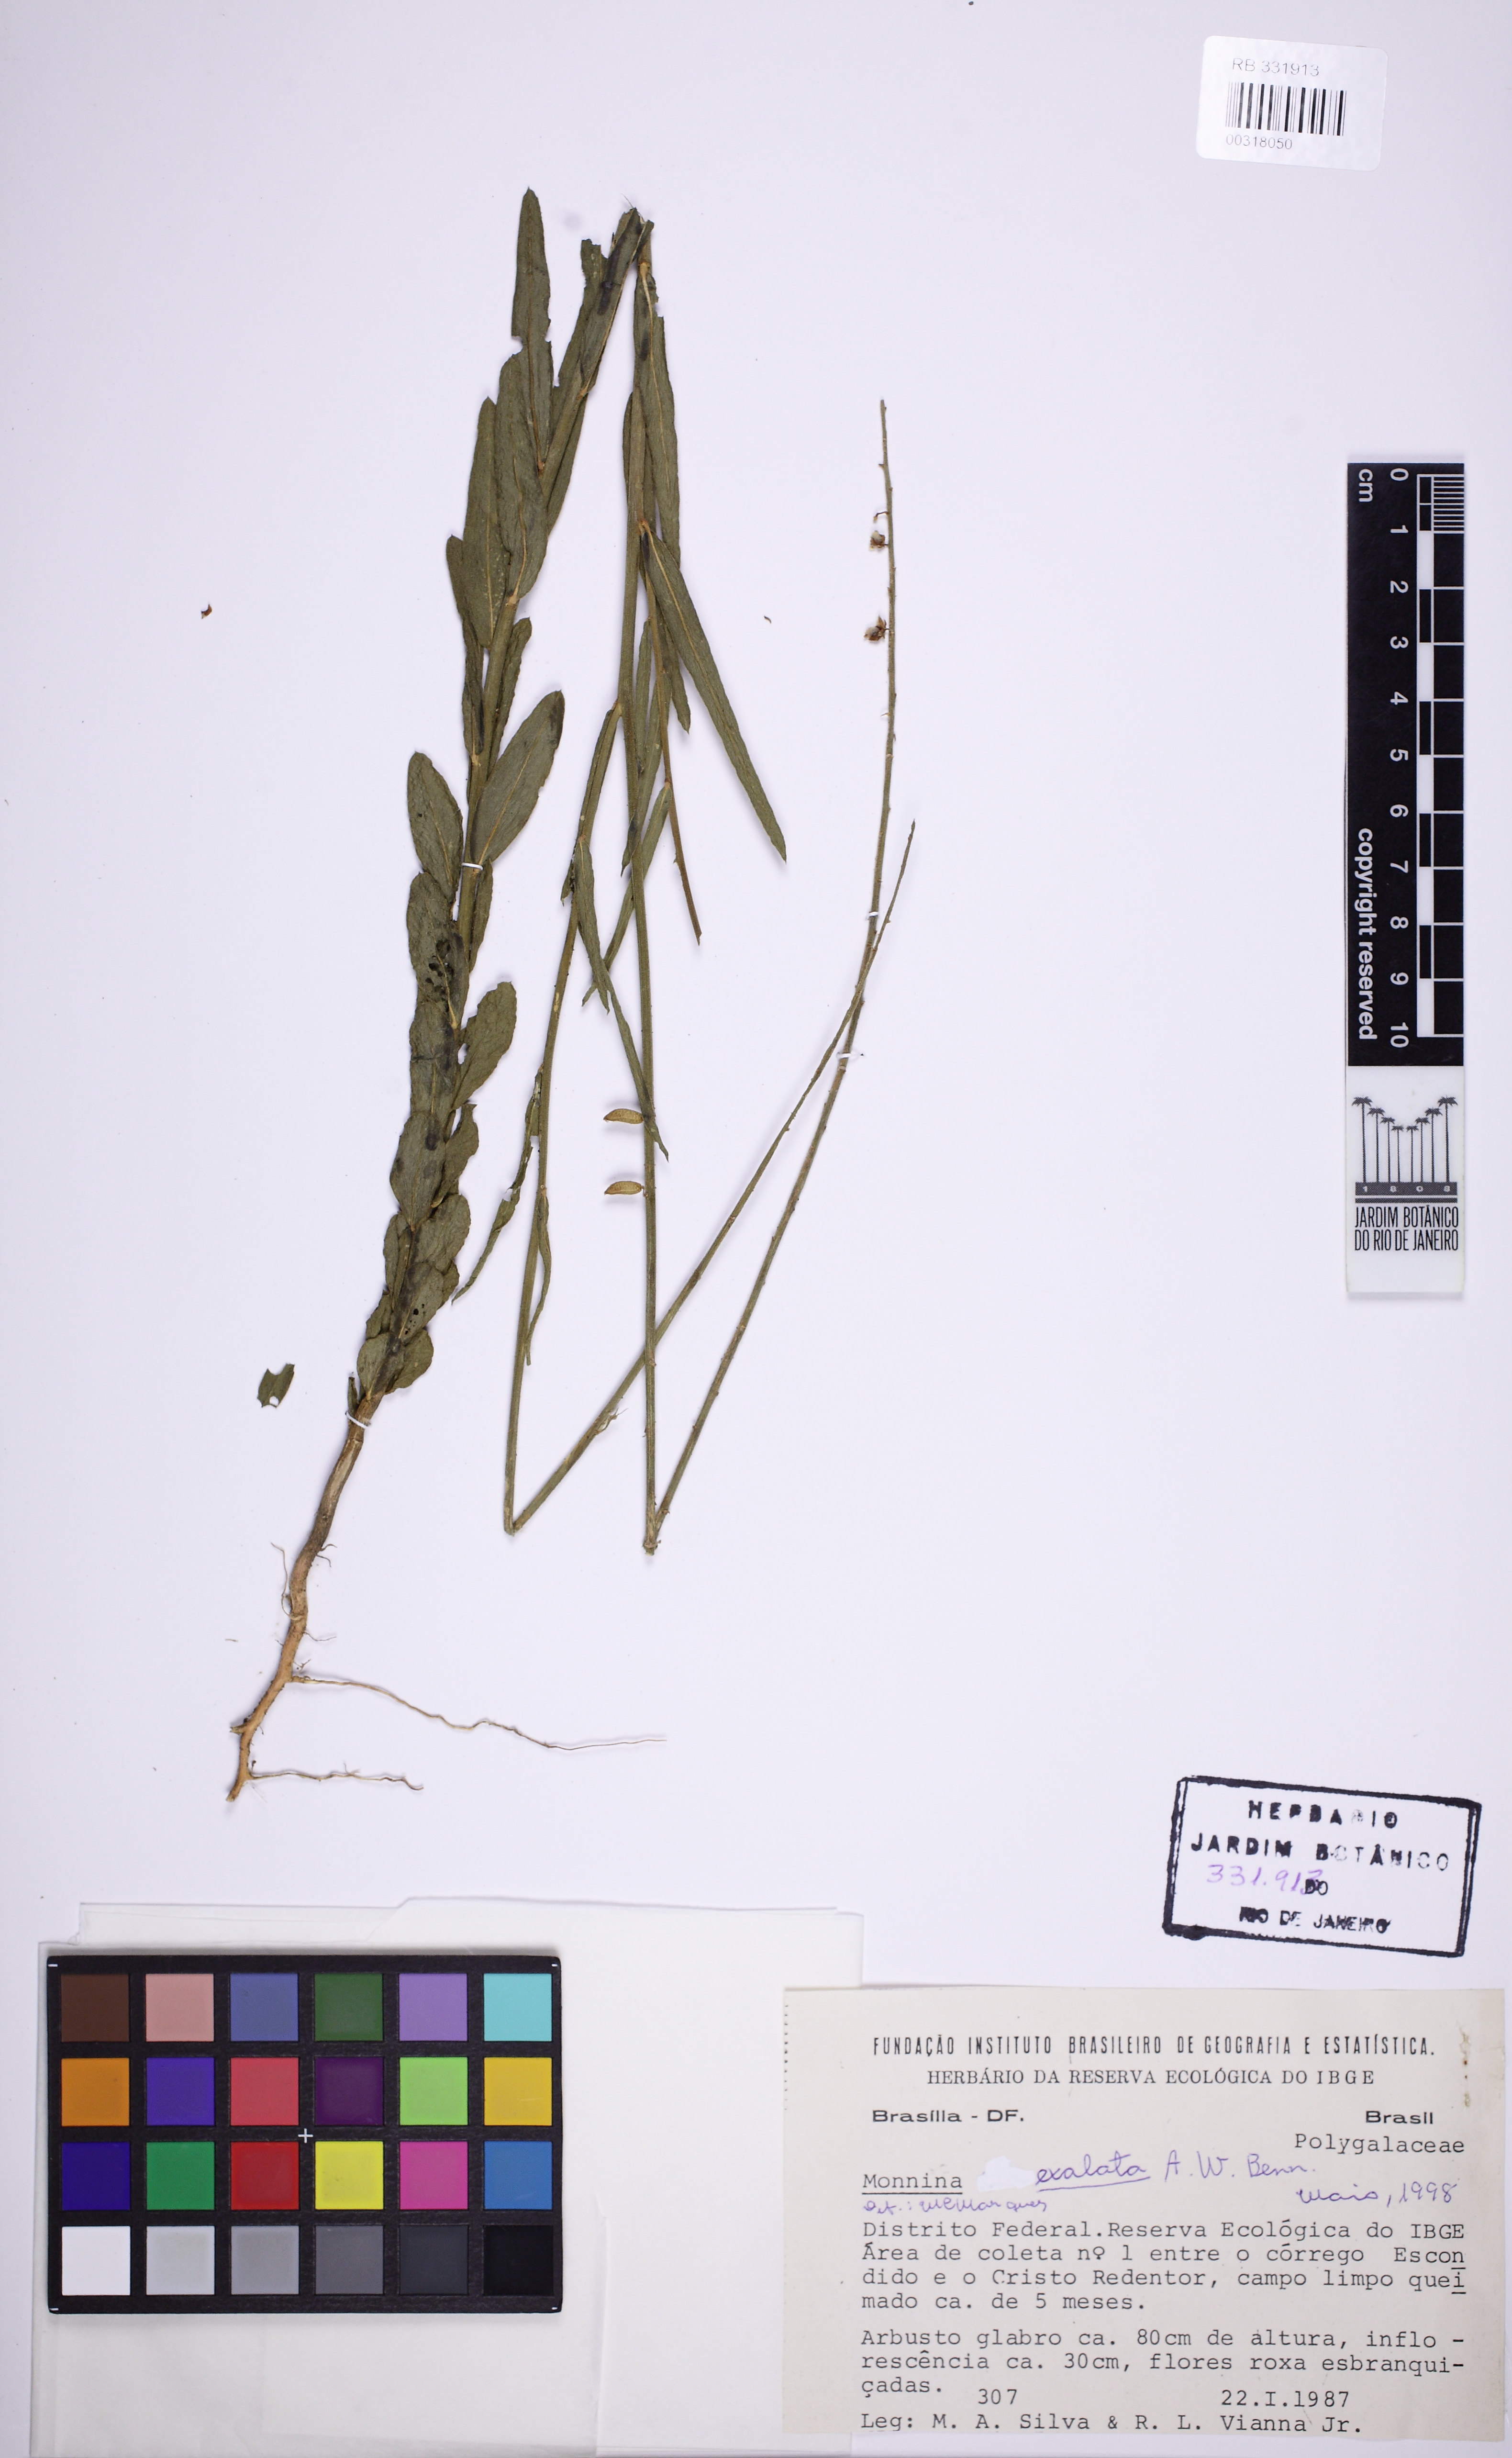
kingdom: Plantae
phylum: Tracheophyta
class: Magnoliopsida
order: Fabales
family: Polygalaceae
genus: Monnina
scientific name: Monnina exalata
